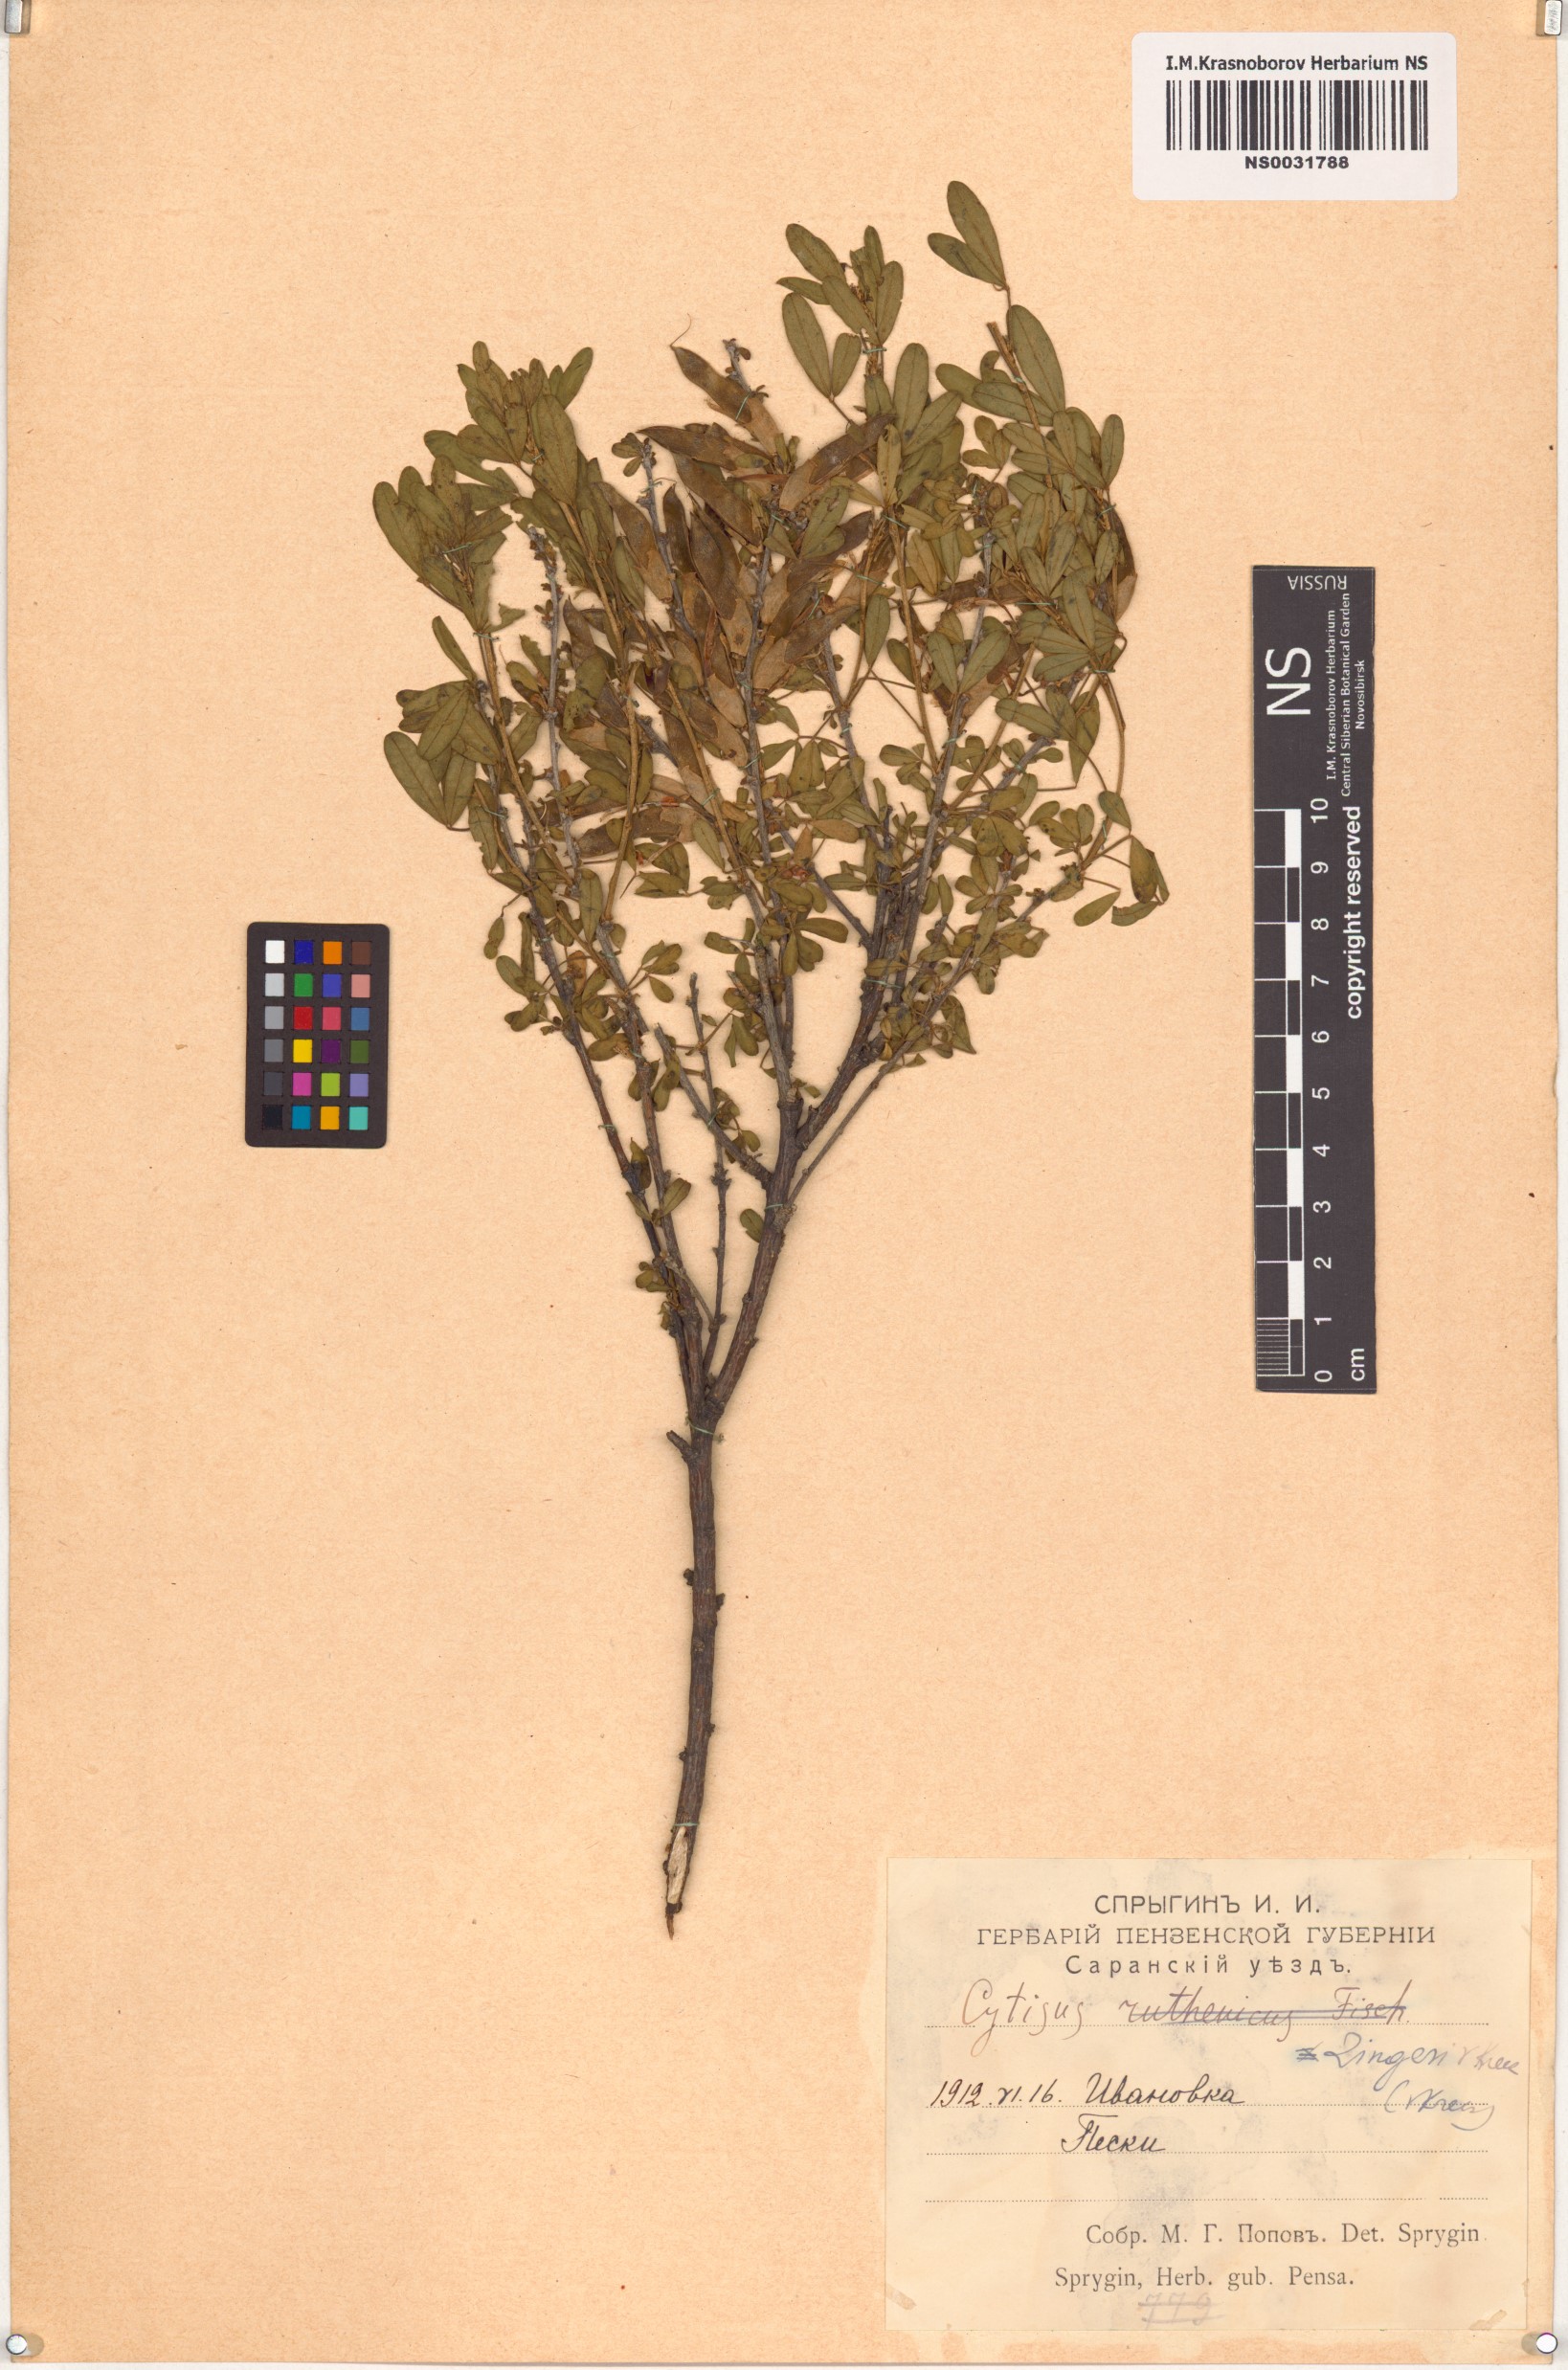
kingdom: Plantae
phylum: Tracheophyta
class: Magnoliopsida
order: Fabales
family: Fabaceae
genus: Chamaecytisus
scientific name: Chamaecytisus zingeri
